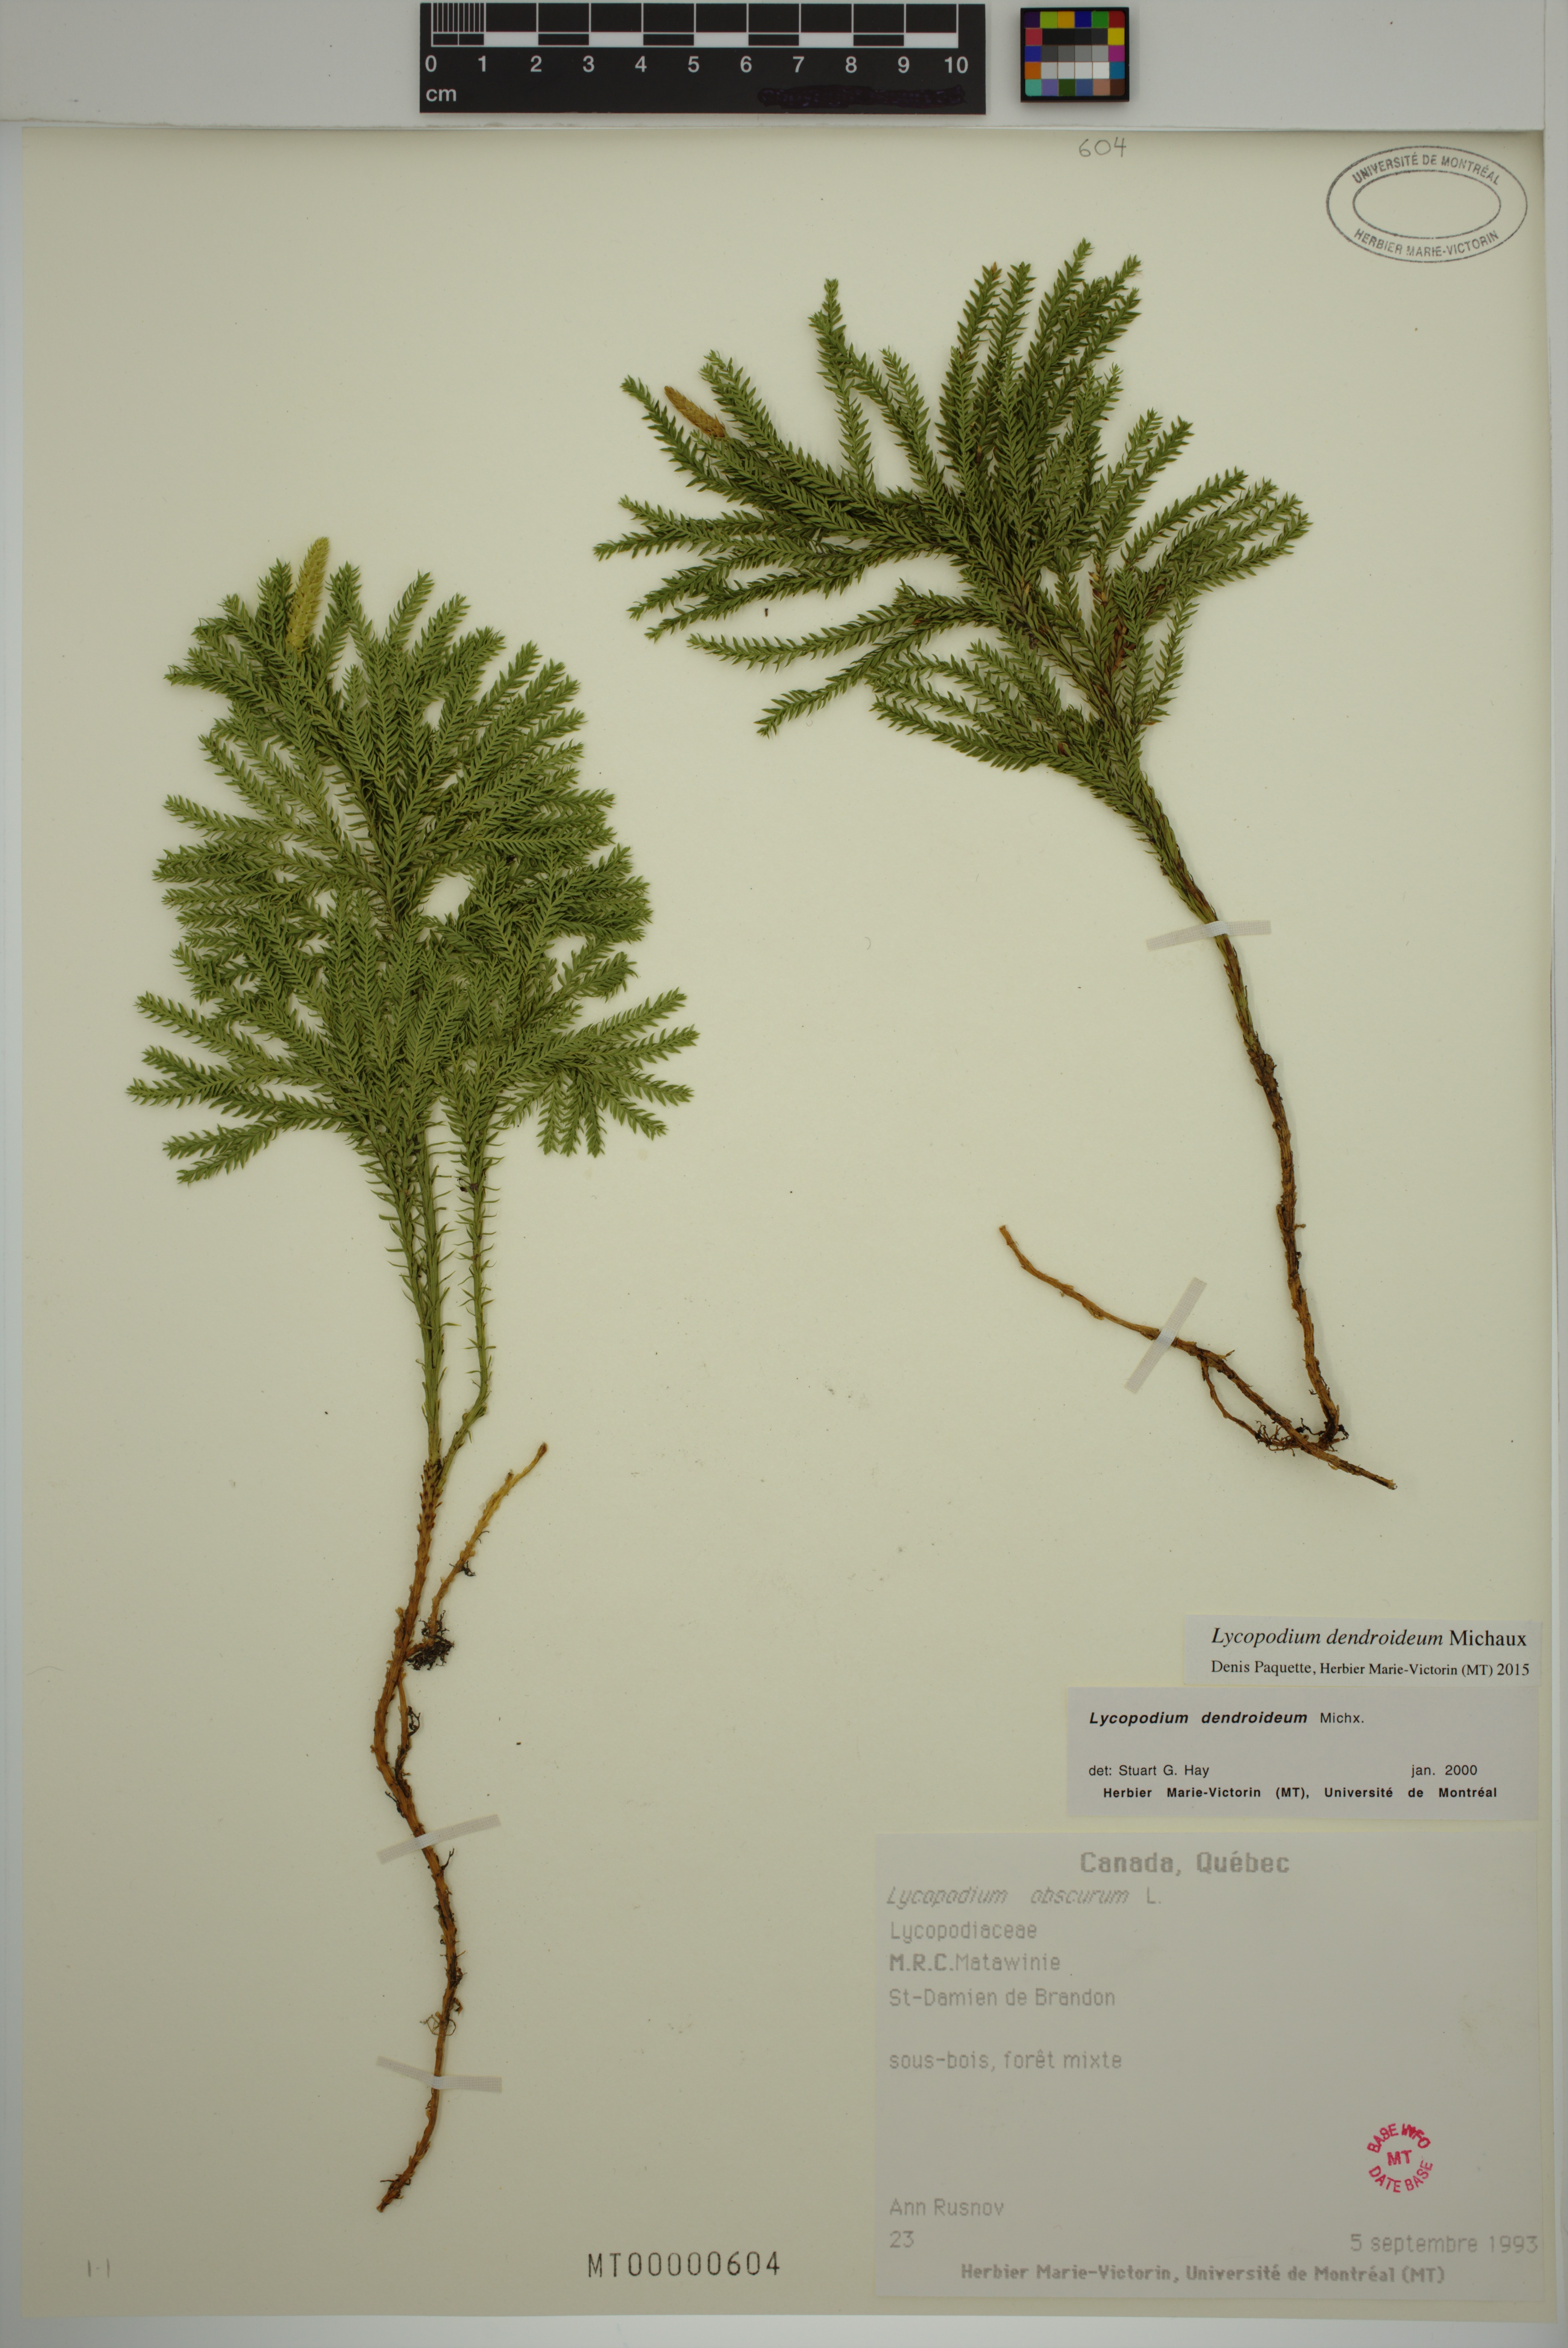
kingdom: Plantae
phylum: Tracheophyta
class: Lycopodiopsida
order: Lycopodiales
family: Lycopodiaceae
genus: Dendrolycopodium
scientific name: Dendrolycopodium dendroideum
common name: Northern tree-clubmoss
